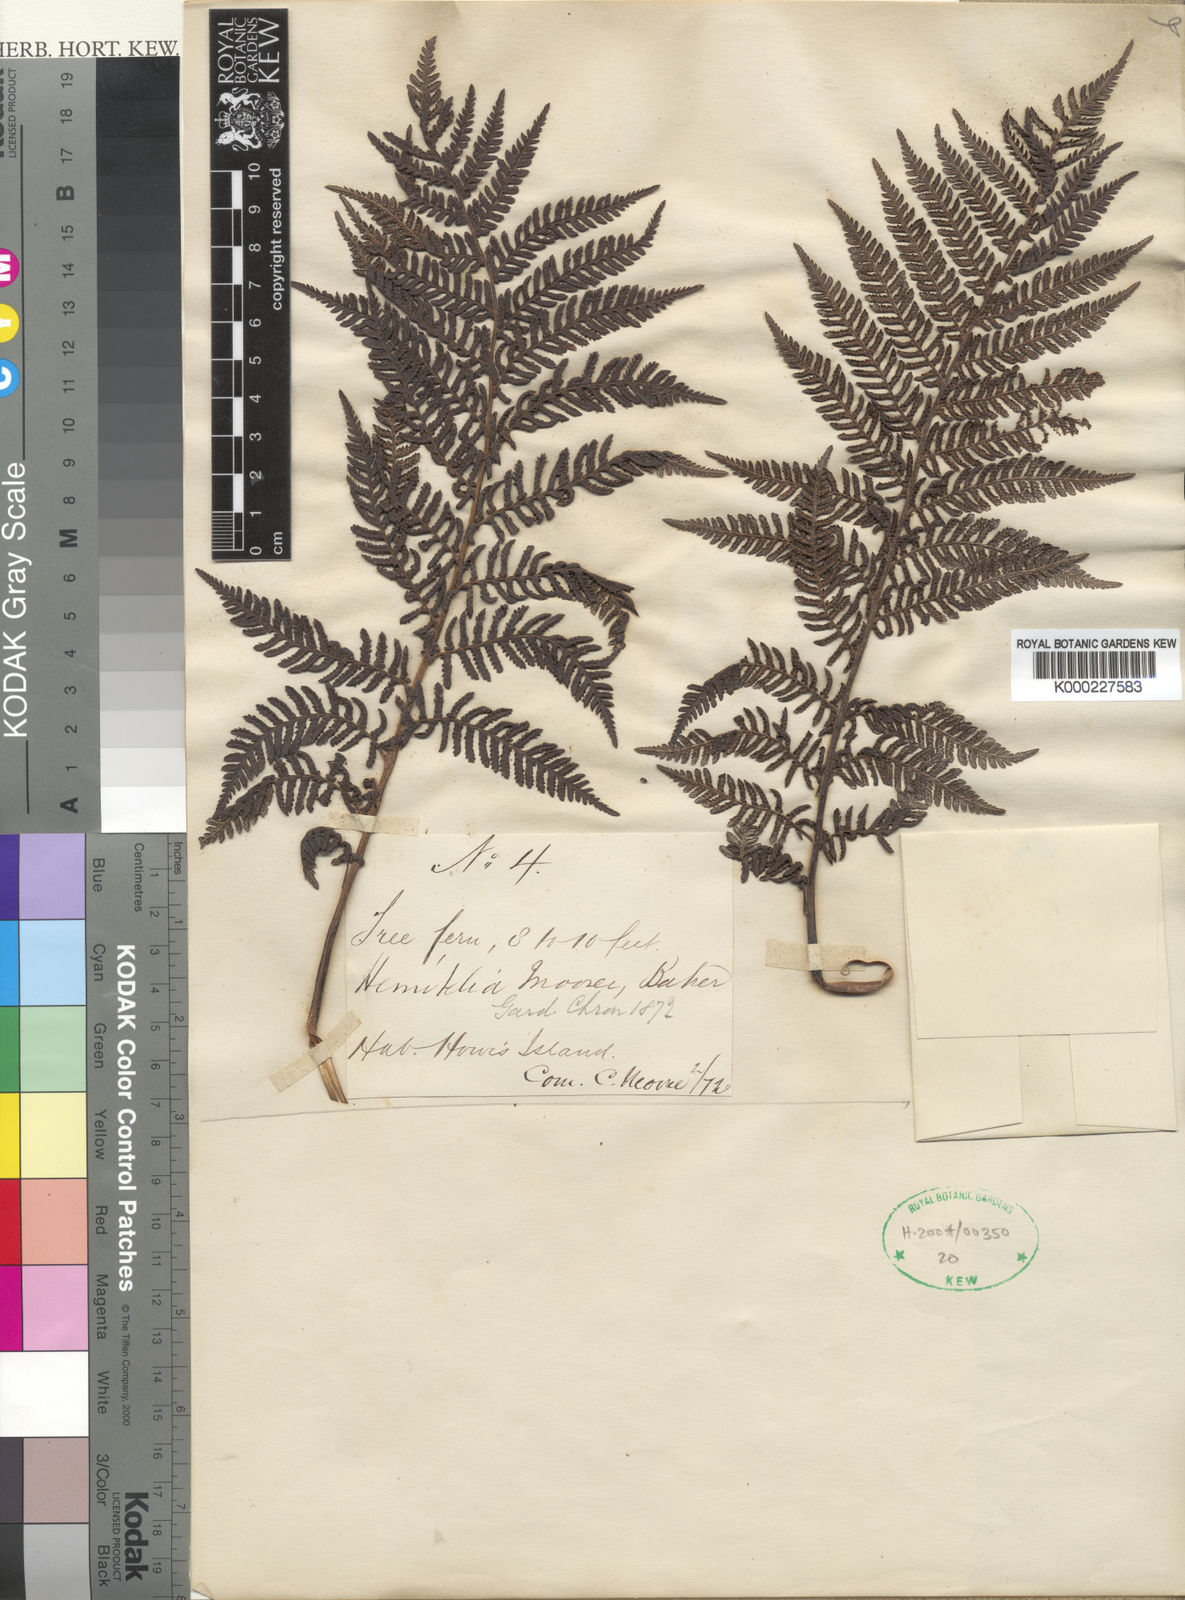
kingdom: Plantae
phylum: Tracheophyta
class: Polypodiopsida
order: Cyatheales
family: Cyatheaceae
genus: Cyathea
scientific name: Cyathea howeana
